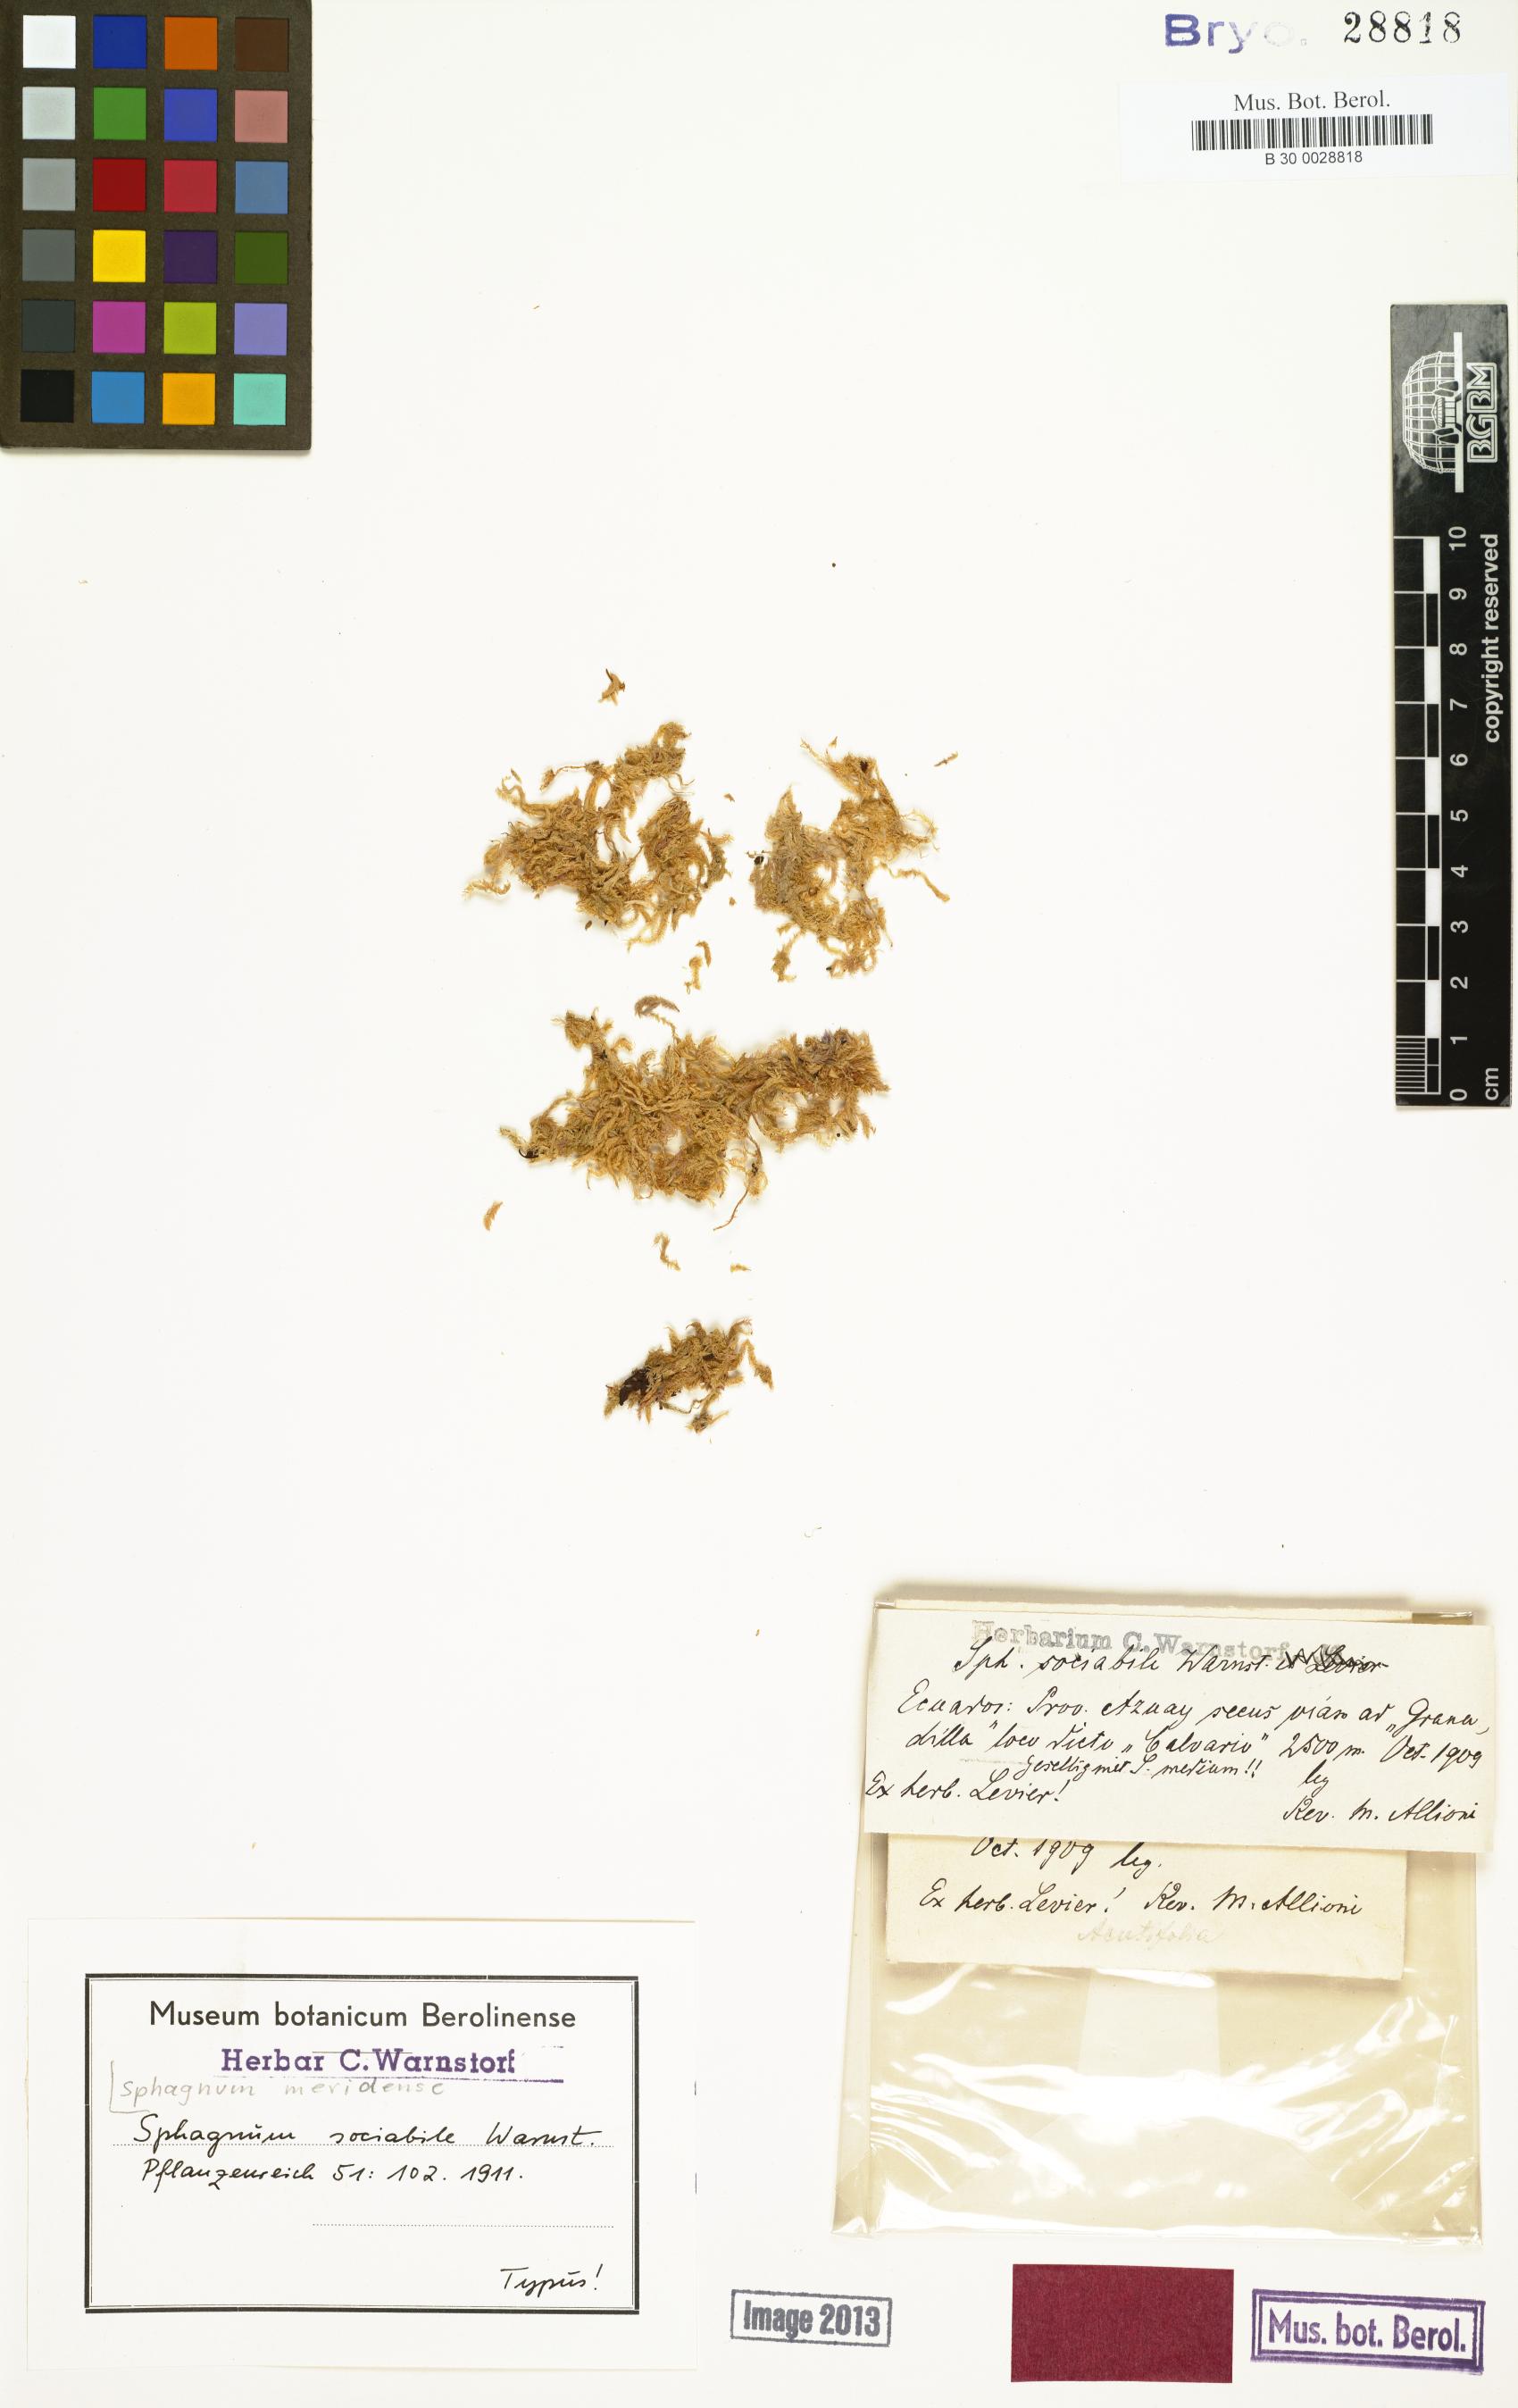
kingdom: Plantae
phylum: Bryophyta
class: Sphagnopsida
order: Sphagnales
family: Sphagnaceae
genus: Sphagnum
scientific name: Sphagnum meridense
